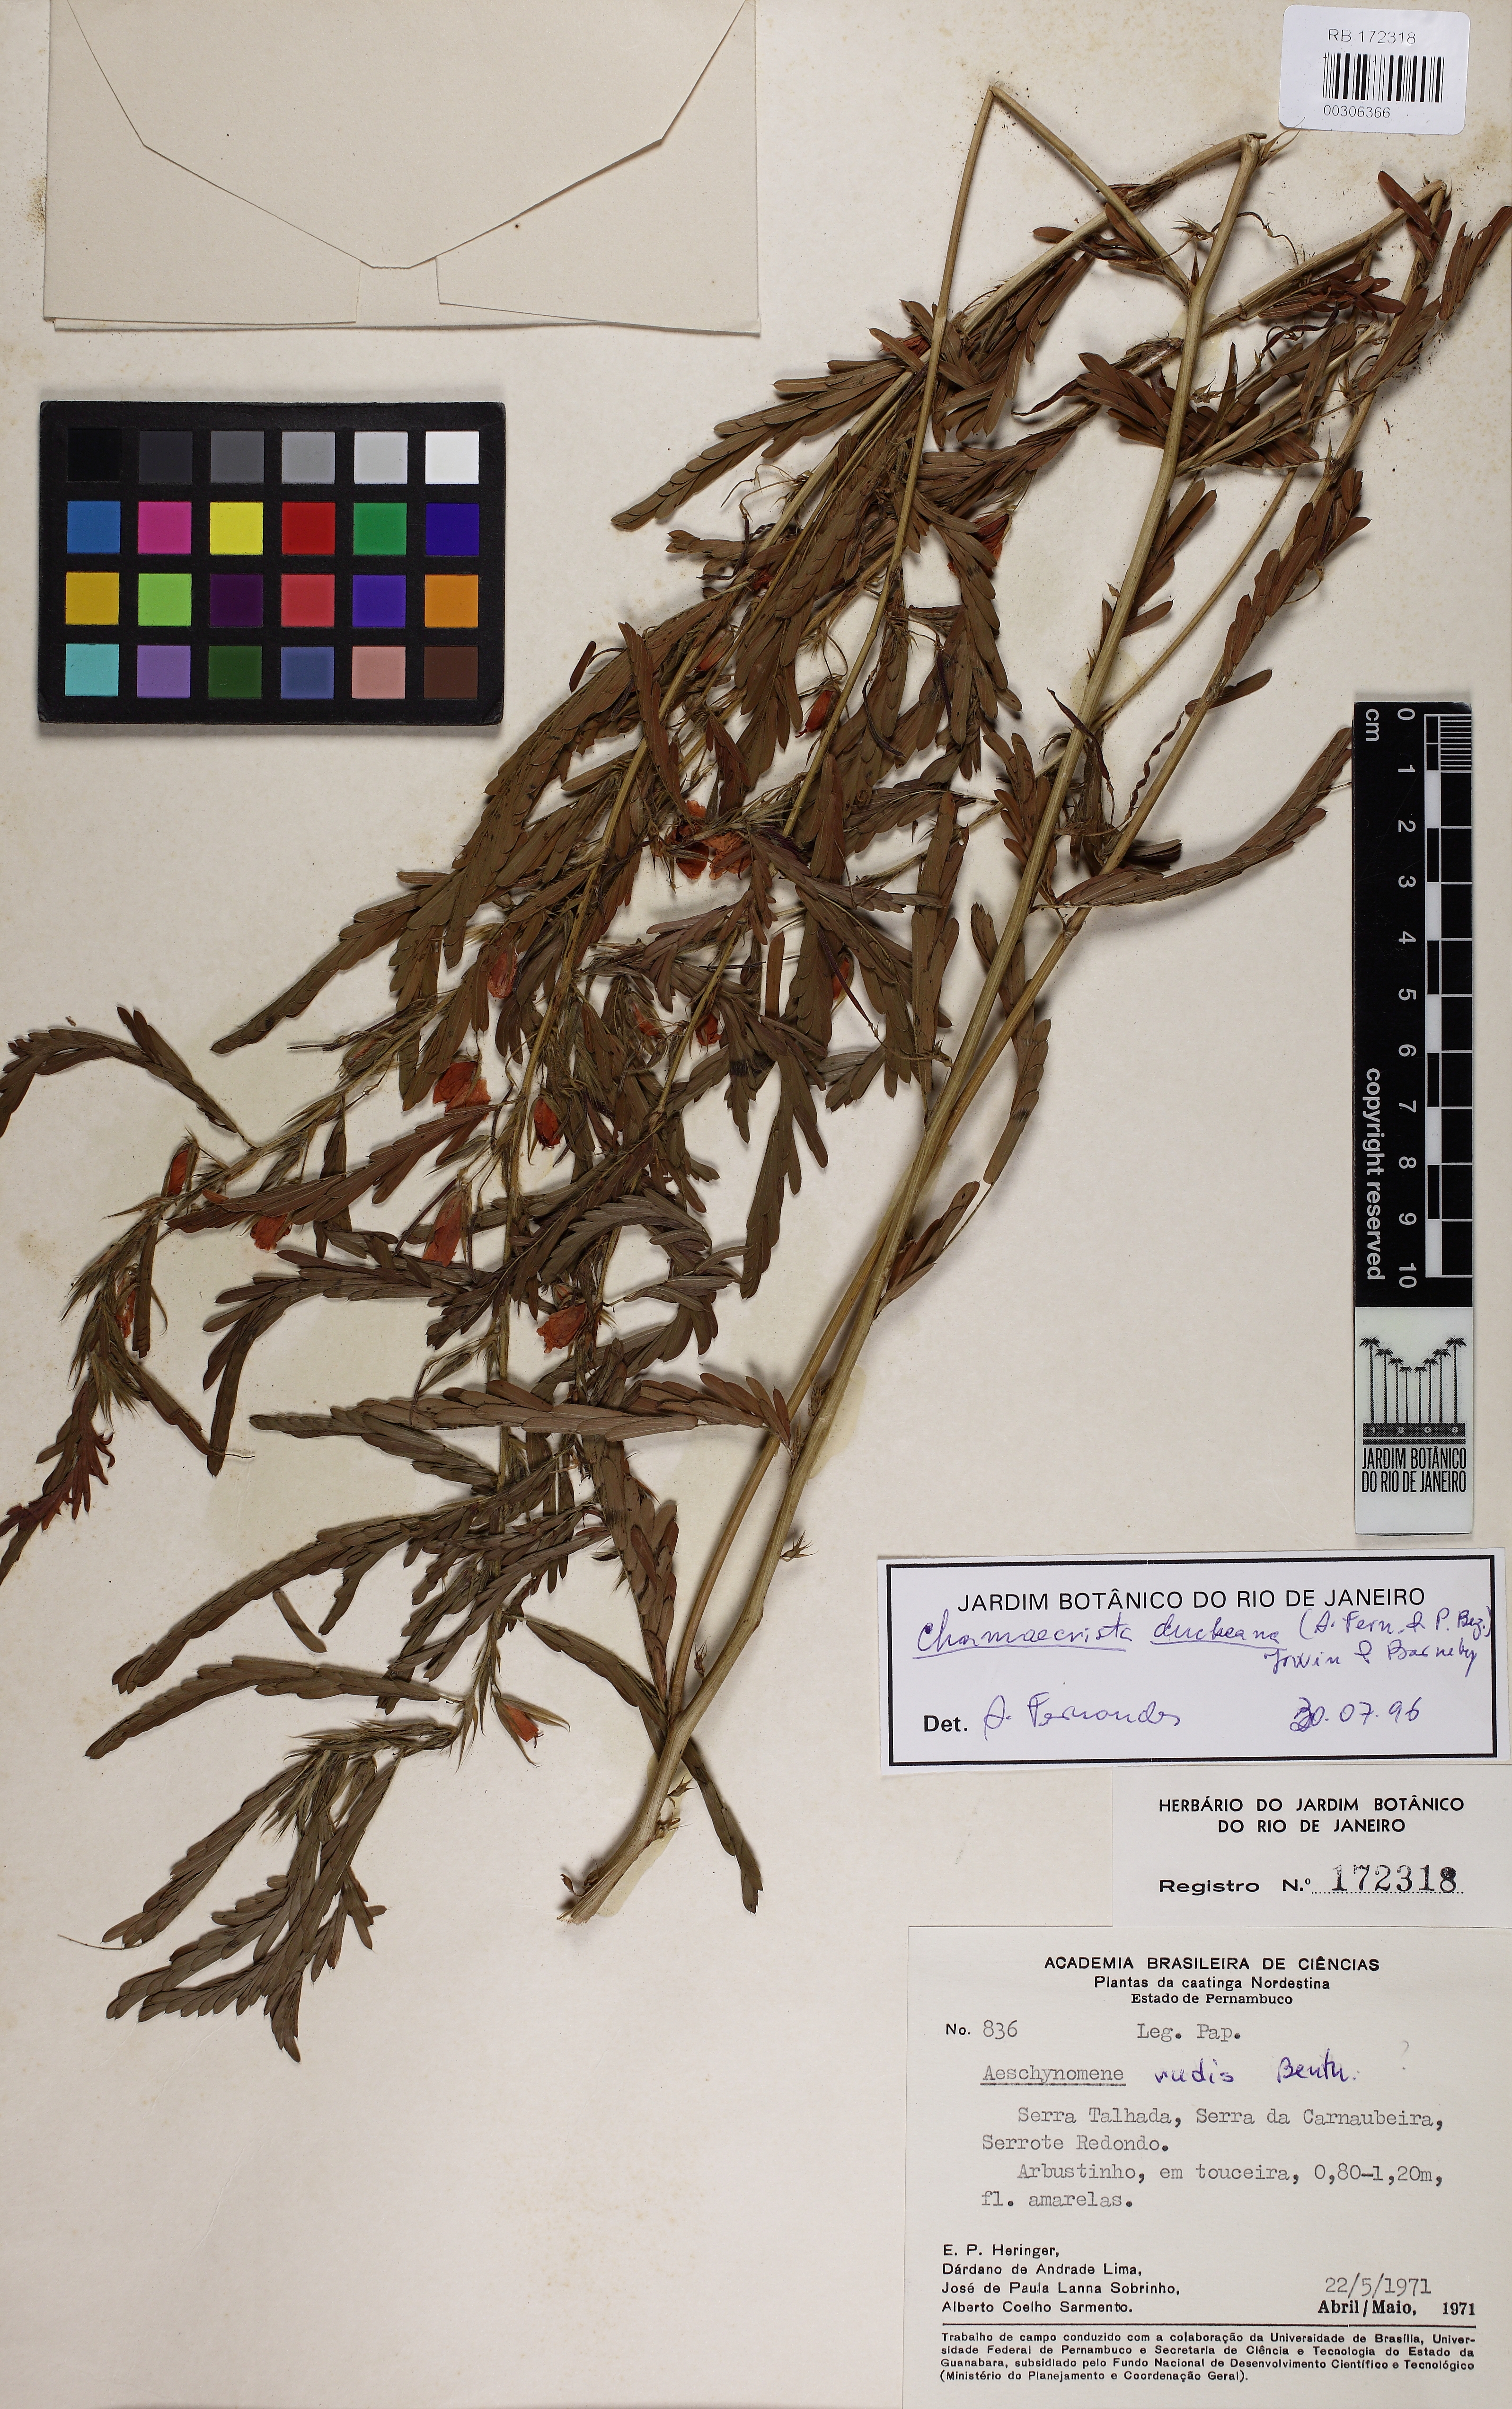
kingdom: Plantae
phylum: Tracheophyta
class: Magnoliopsida
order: Fabales
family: Fabaceae
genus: Chamaecrista
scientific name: Chamaecrista duckeana
